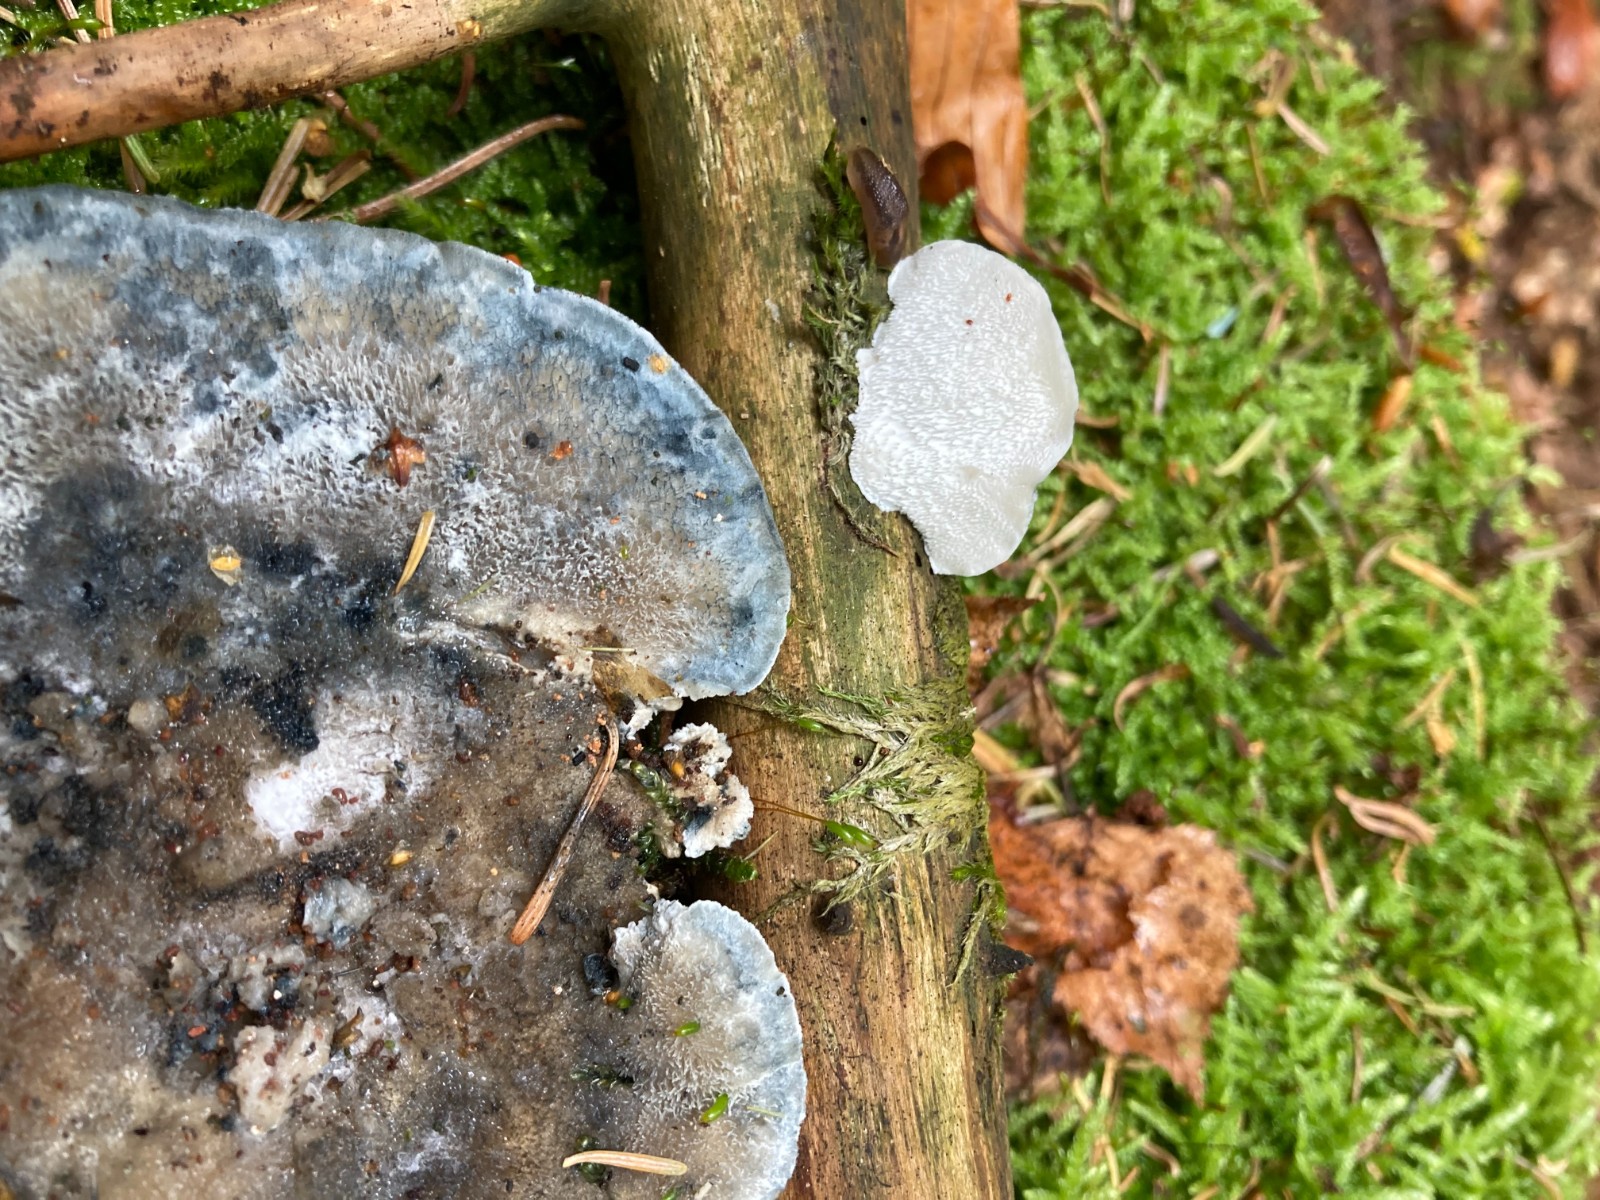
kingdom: Fungi
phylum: Basidiomycota
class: Agaricomycetes
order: Polyporales
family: Polyporaceae
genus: Cyanosporus
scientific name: Cyanosporus caesius
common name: blålig kødporesvamp
